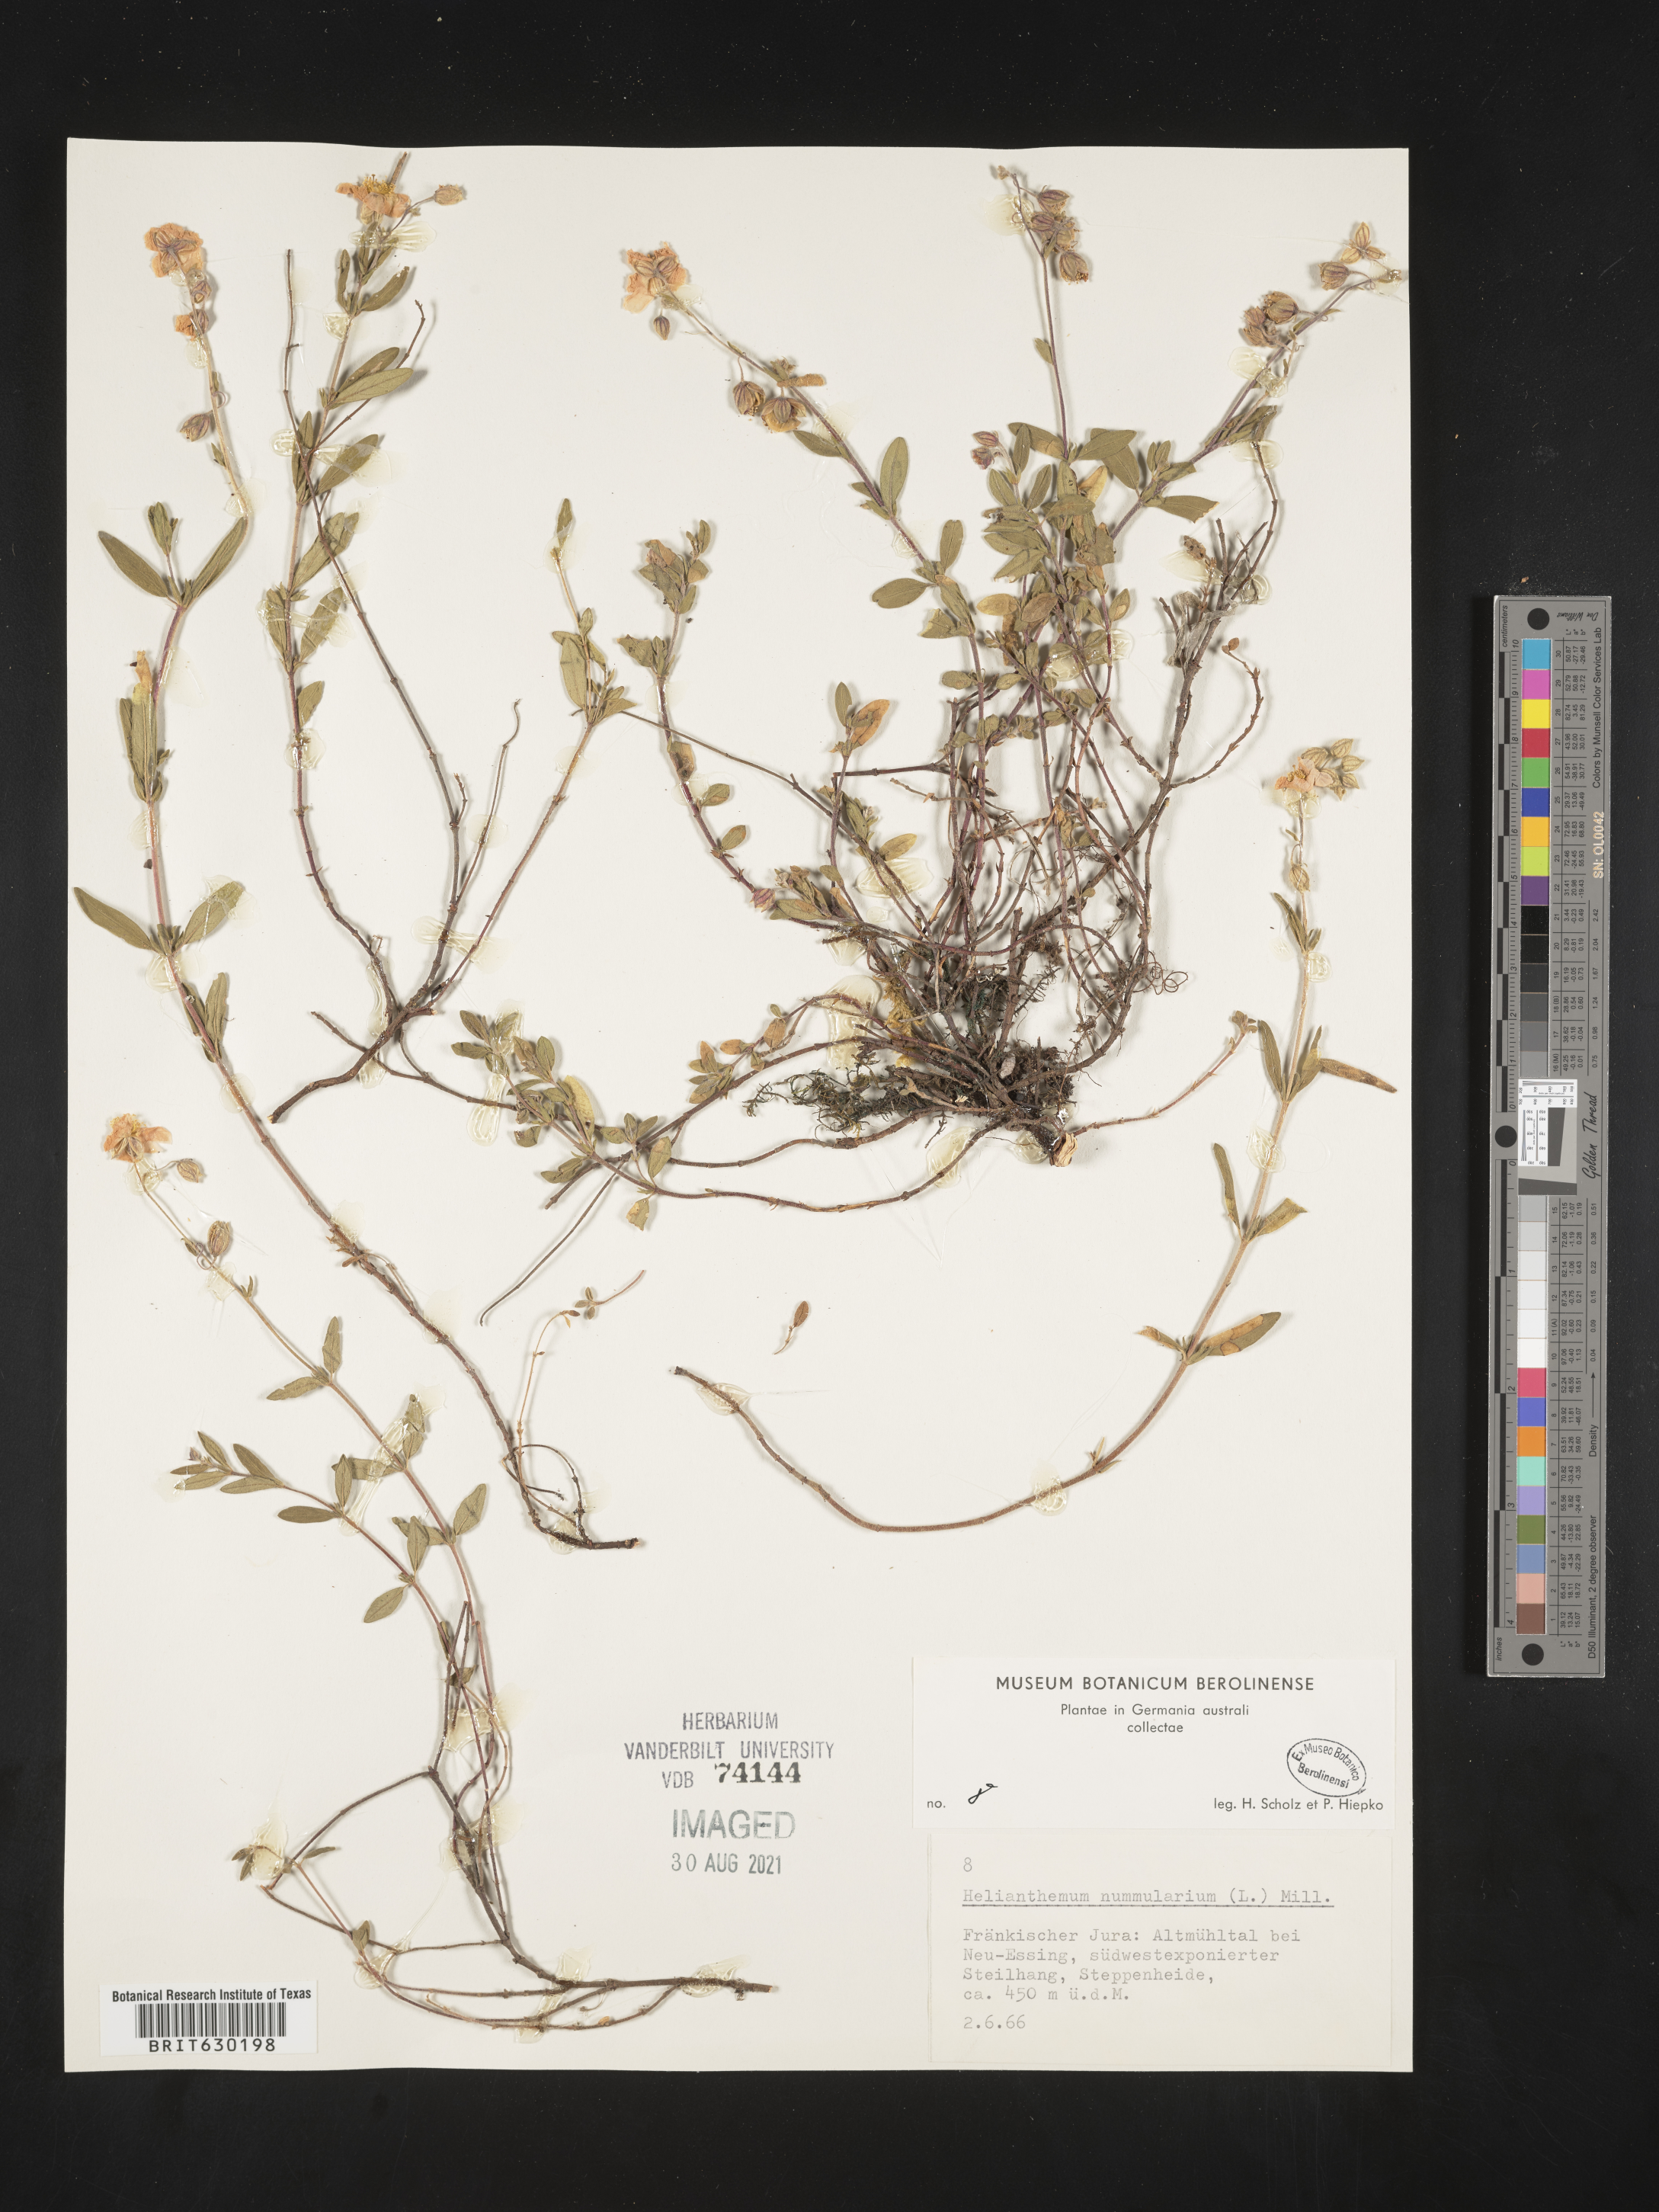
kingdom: Plantae
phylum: Tracheophyta
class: Magnoliopsida
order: Malvales
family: Cistaceae
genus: Helianthemum
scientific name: Helianthemum
